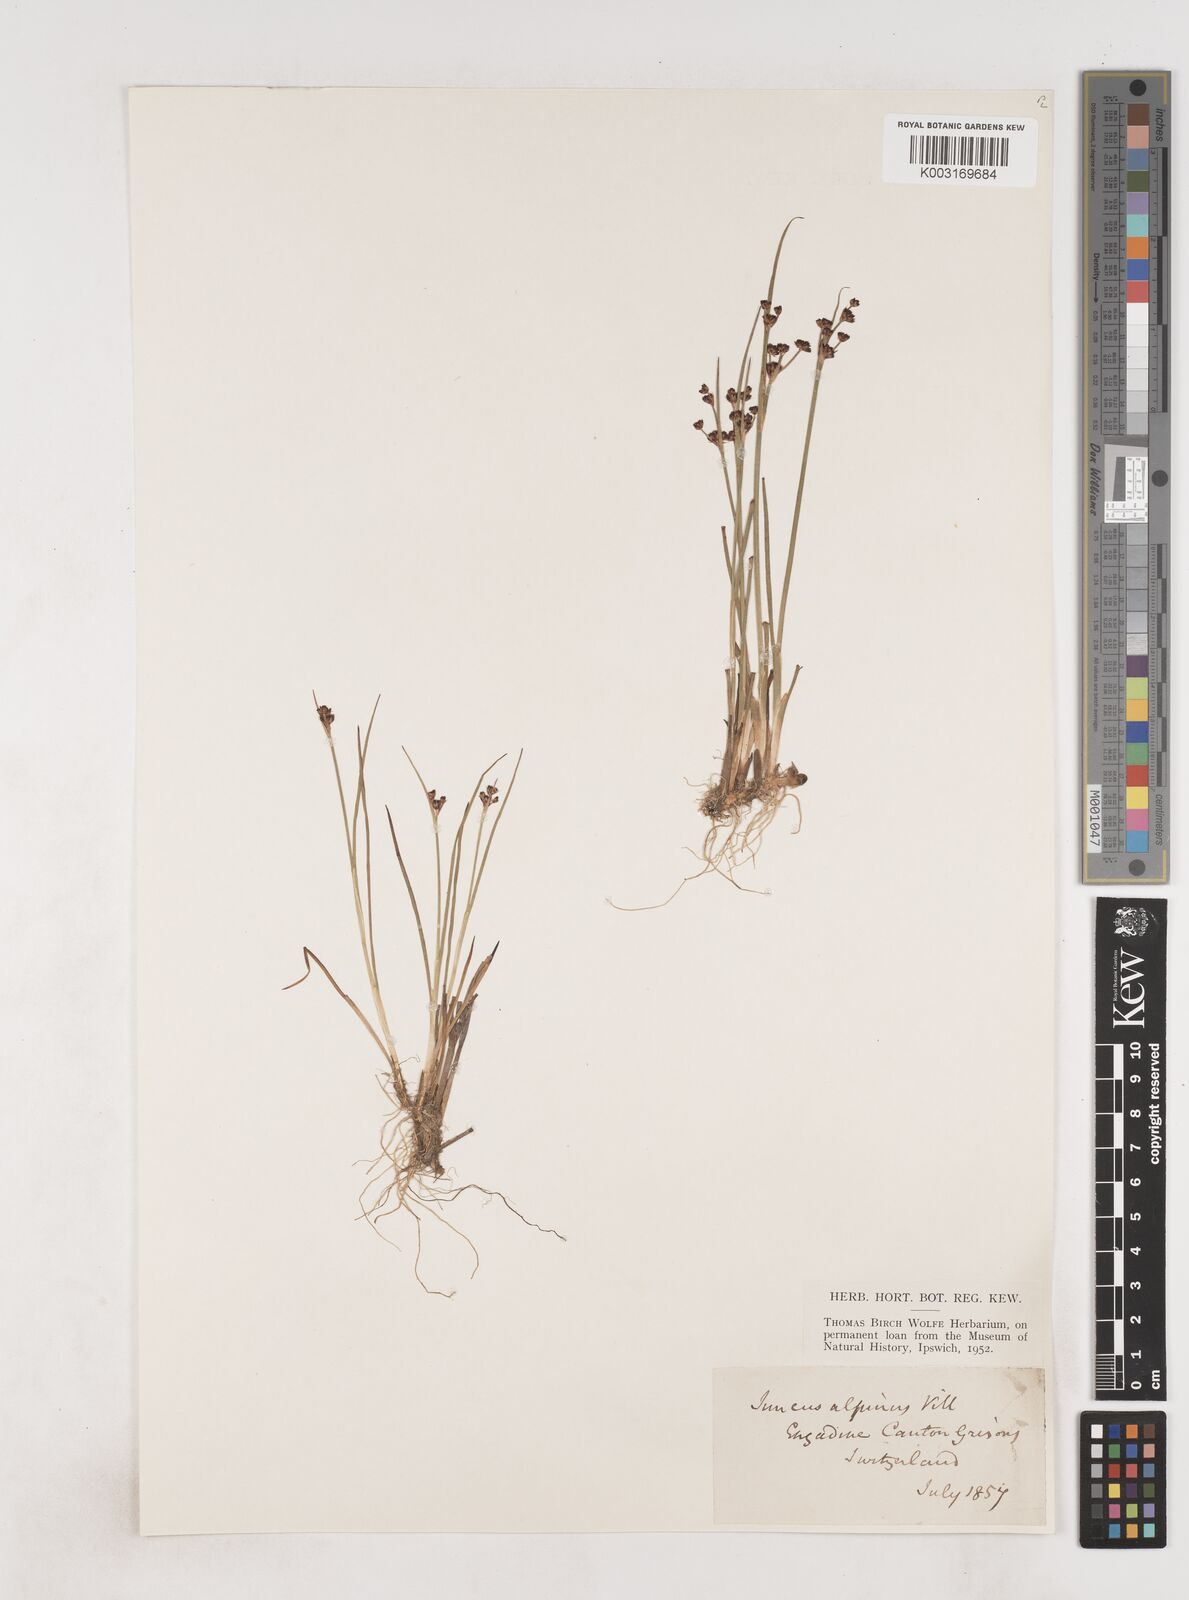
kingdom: Plantae
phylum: Tracheophyta
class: Liliopsida
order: Poales
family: Juncaceae
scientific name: Juncaceae
